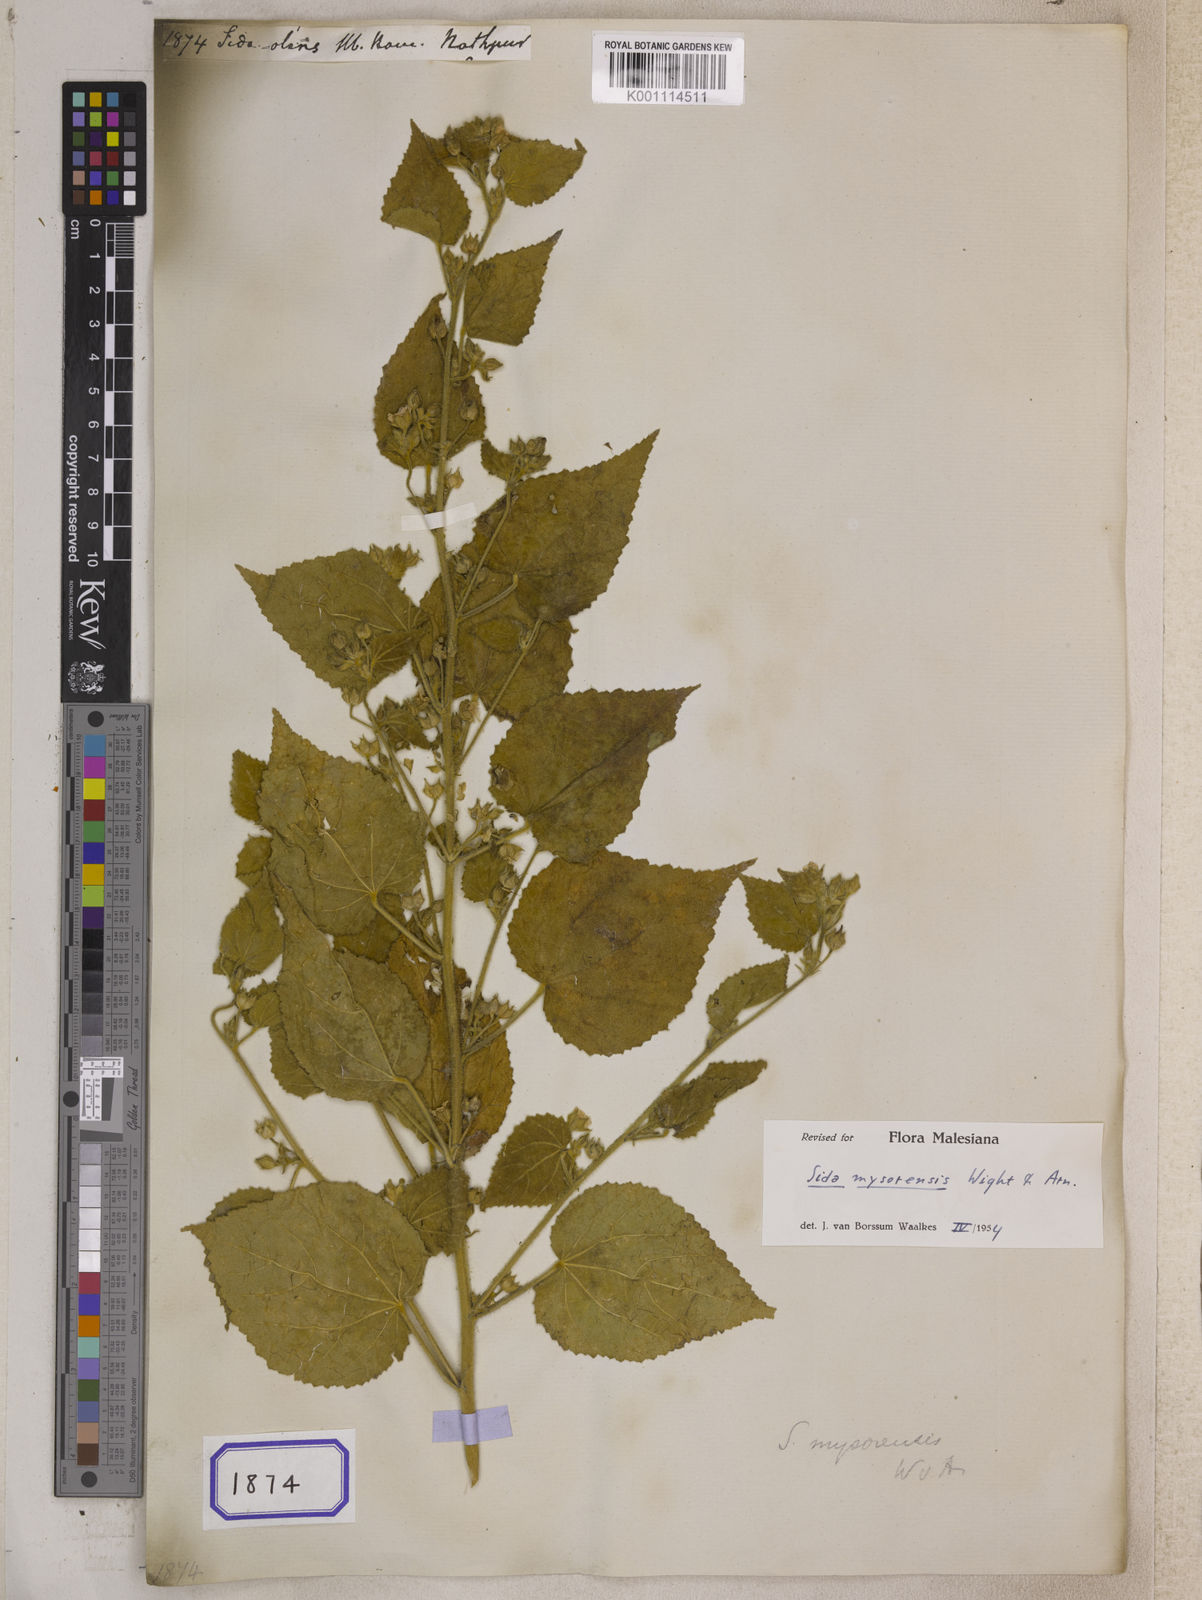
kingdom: Plantae
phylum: Tracheophyta
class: Magnoliopsida
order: Malvales
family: Malvaceae
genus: Sida
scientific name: Sida glabra
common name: Smooth fanpetals
